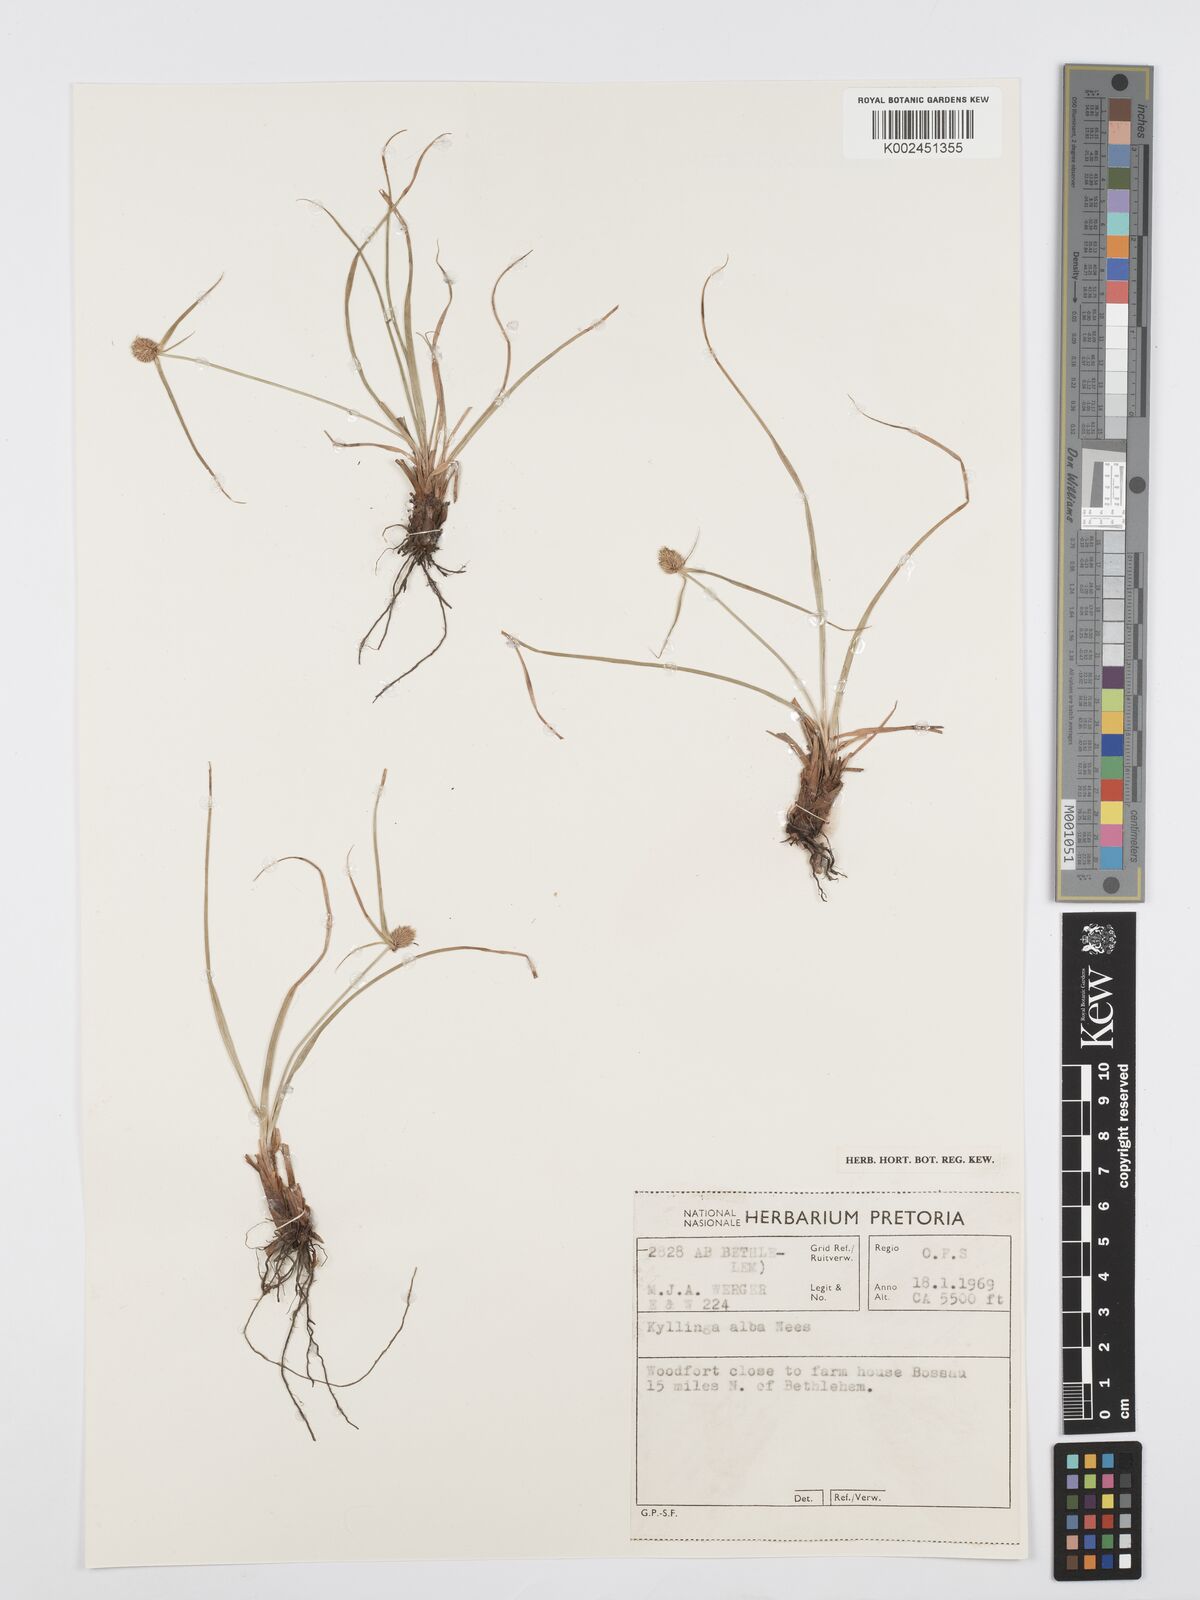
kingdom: Plantae
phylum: Tracheophyta
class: Liliopsida
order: Poales
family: Cyperaceae
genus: Cyperus
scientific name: Cyperus
